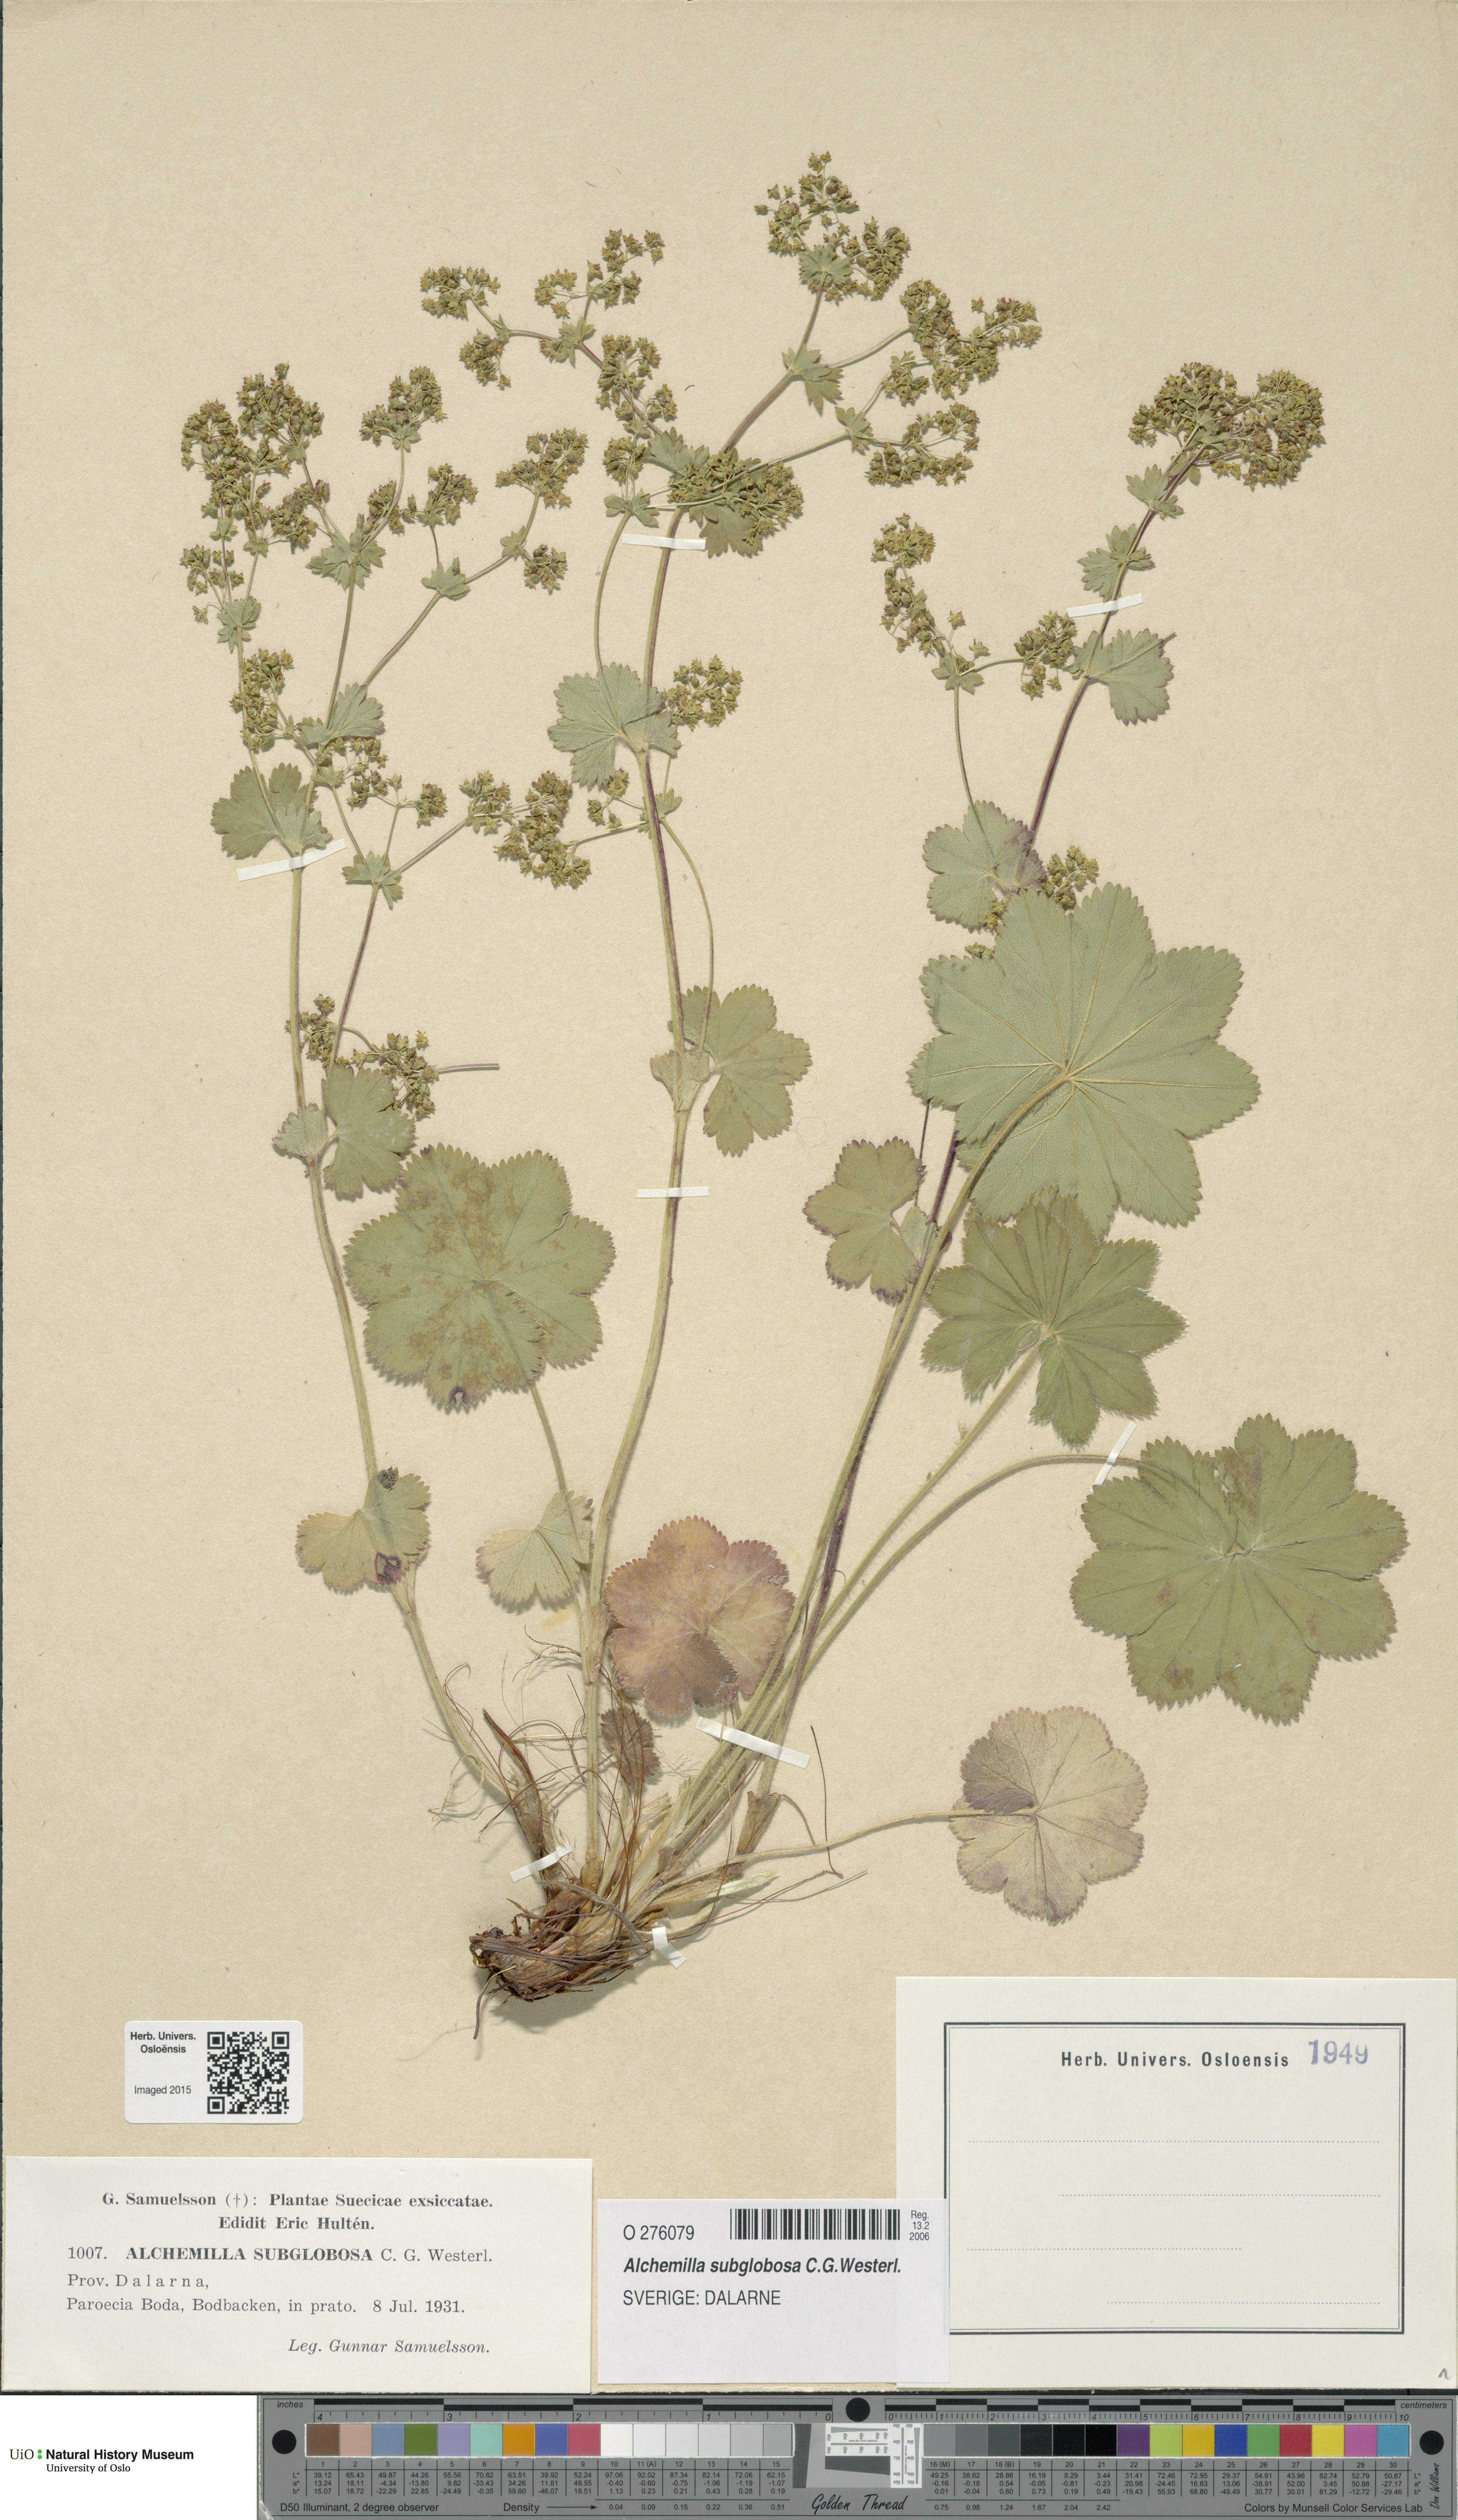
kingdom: Plantae
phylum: Tracheophyta
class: Magnoliopsida
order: Rosales
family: Rosaceae
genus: Alchemilla
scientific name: Alchemilla subglobosa
